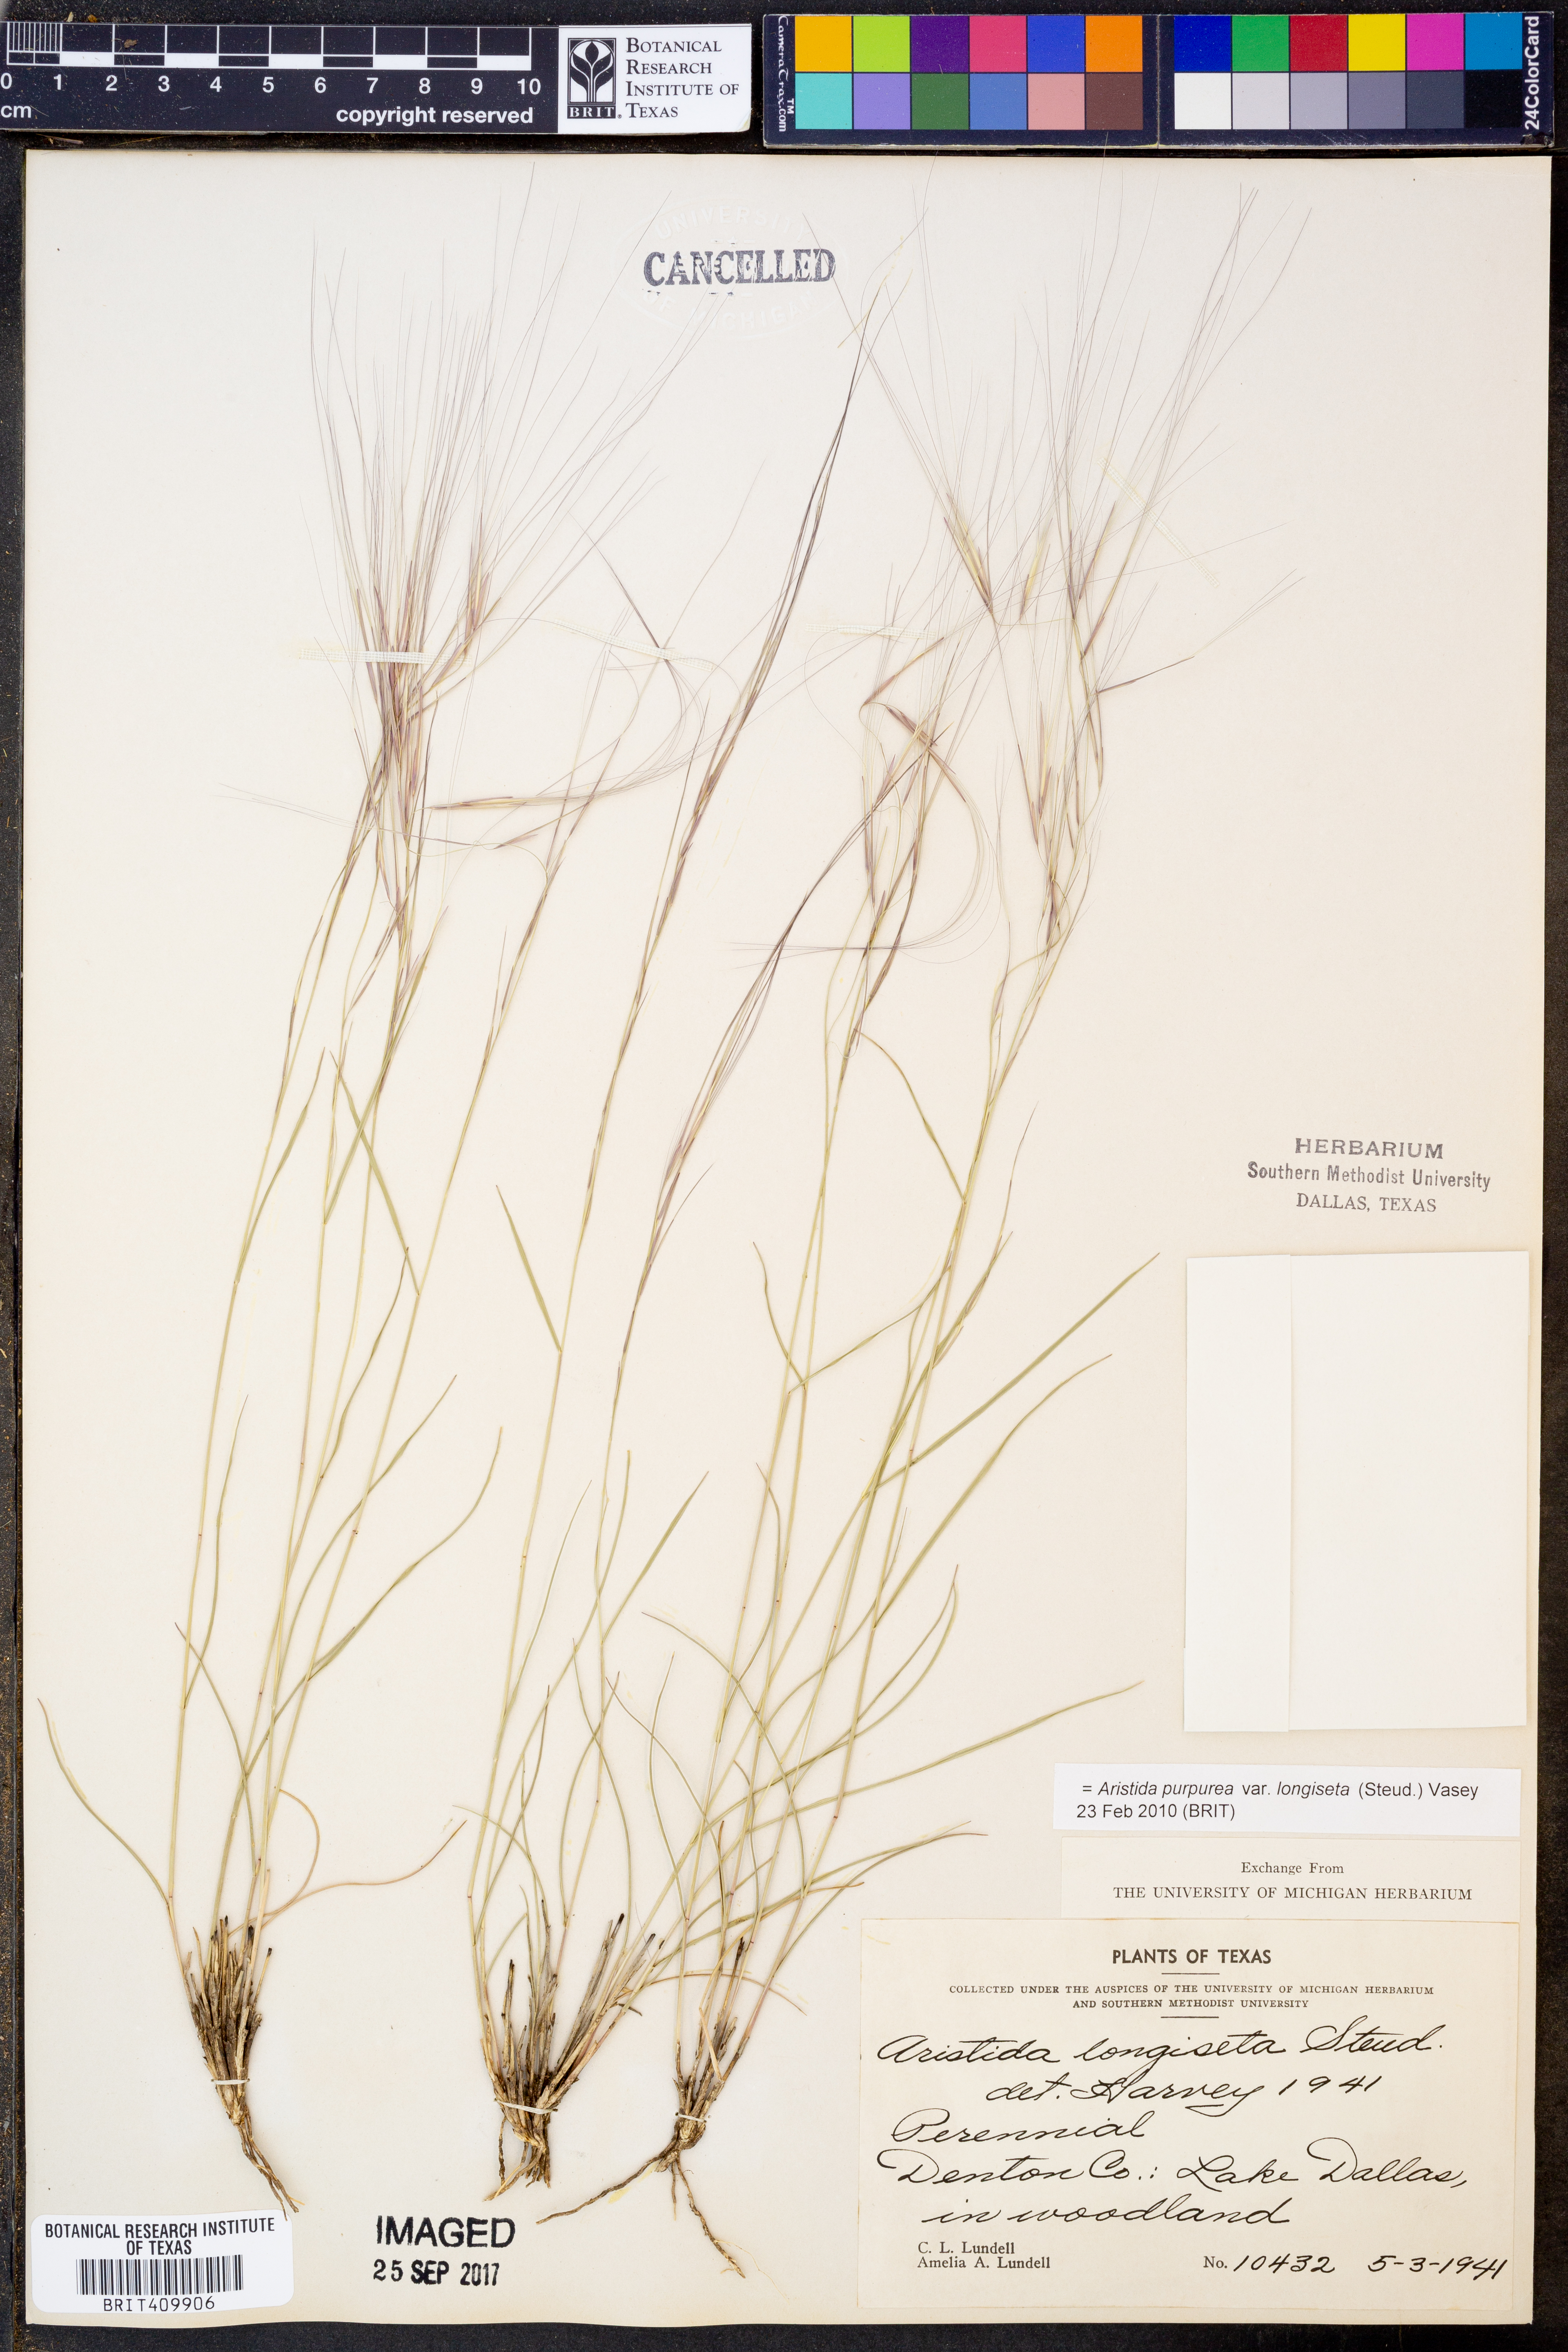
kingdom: Plantae
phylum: Tracheophyta
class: Liliopsida
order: Poales
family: Poaceae
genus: Aristida
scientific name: Aristida longiseta
